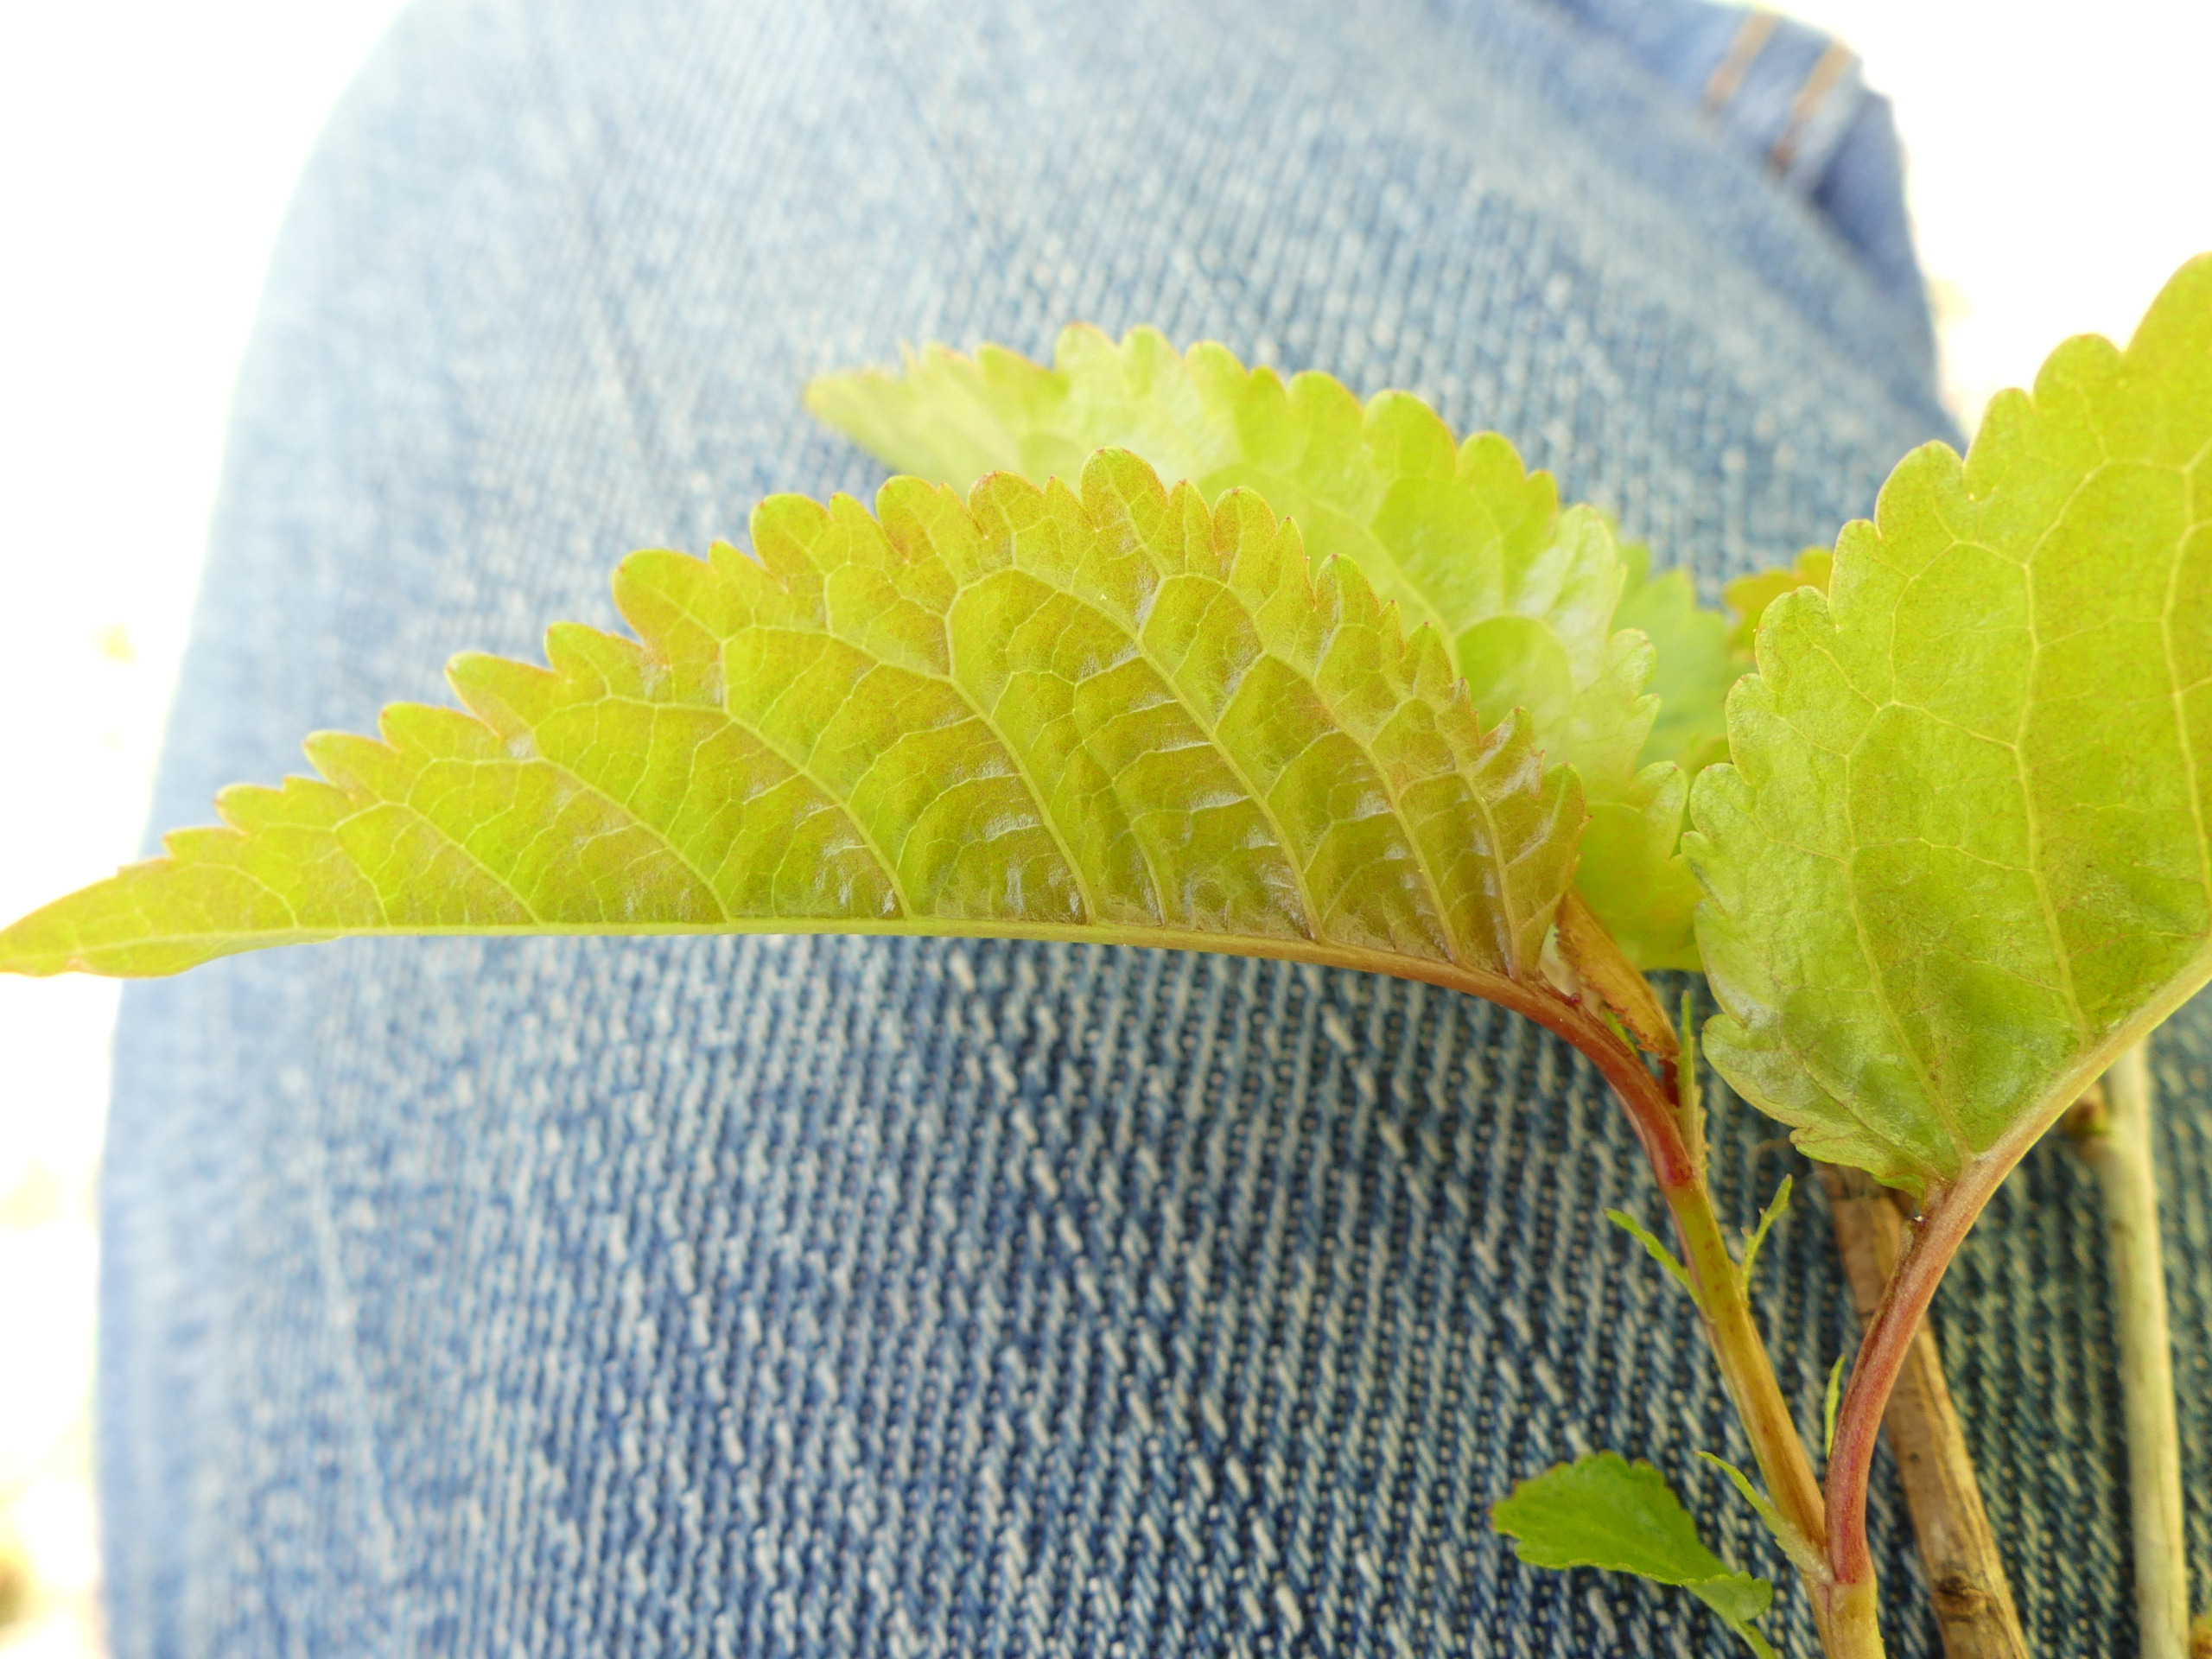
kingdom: Plantae
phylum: Tracheophyta
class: Magnoliopsida
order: Rosales
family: Rosaceae
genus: Prunus
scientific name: Prunus avium
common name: Fugle-kirsebær
